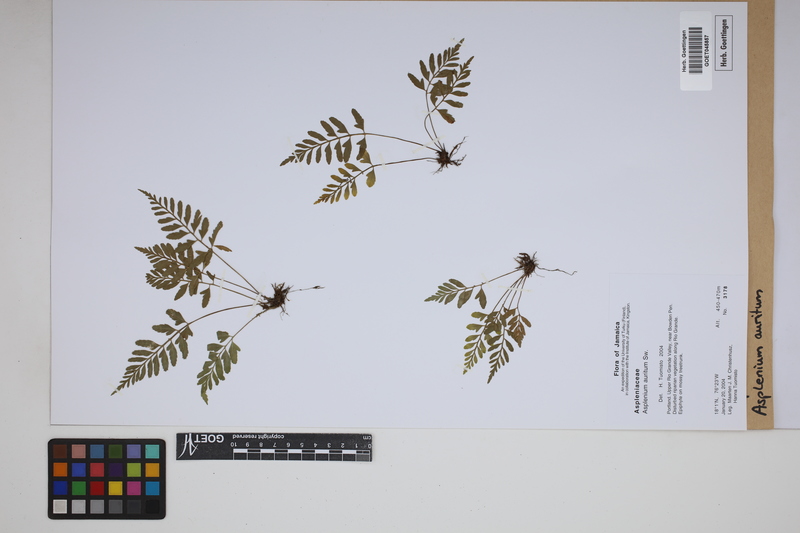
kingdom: Plantae
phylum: Tracheophyta
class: Polypodiopsida
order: Polypodiales
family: Aspleniaceae
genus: Asplenium
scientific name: Asplenium auritum
